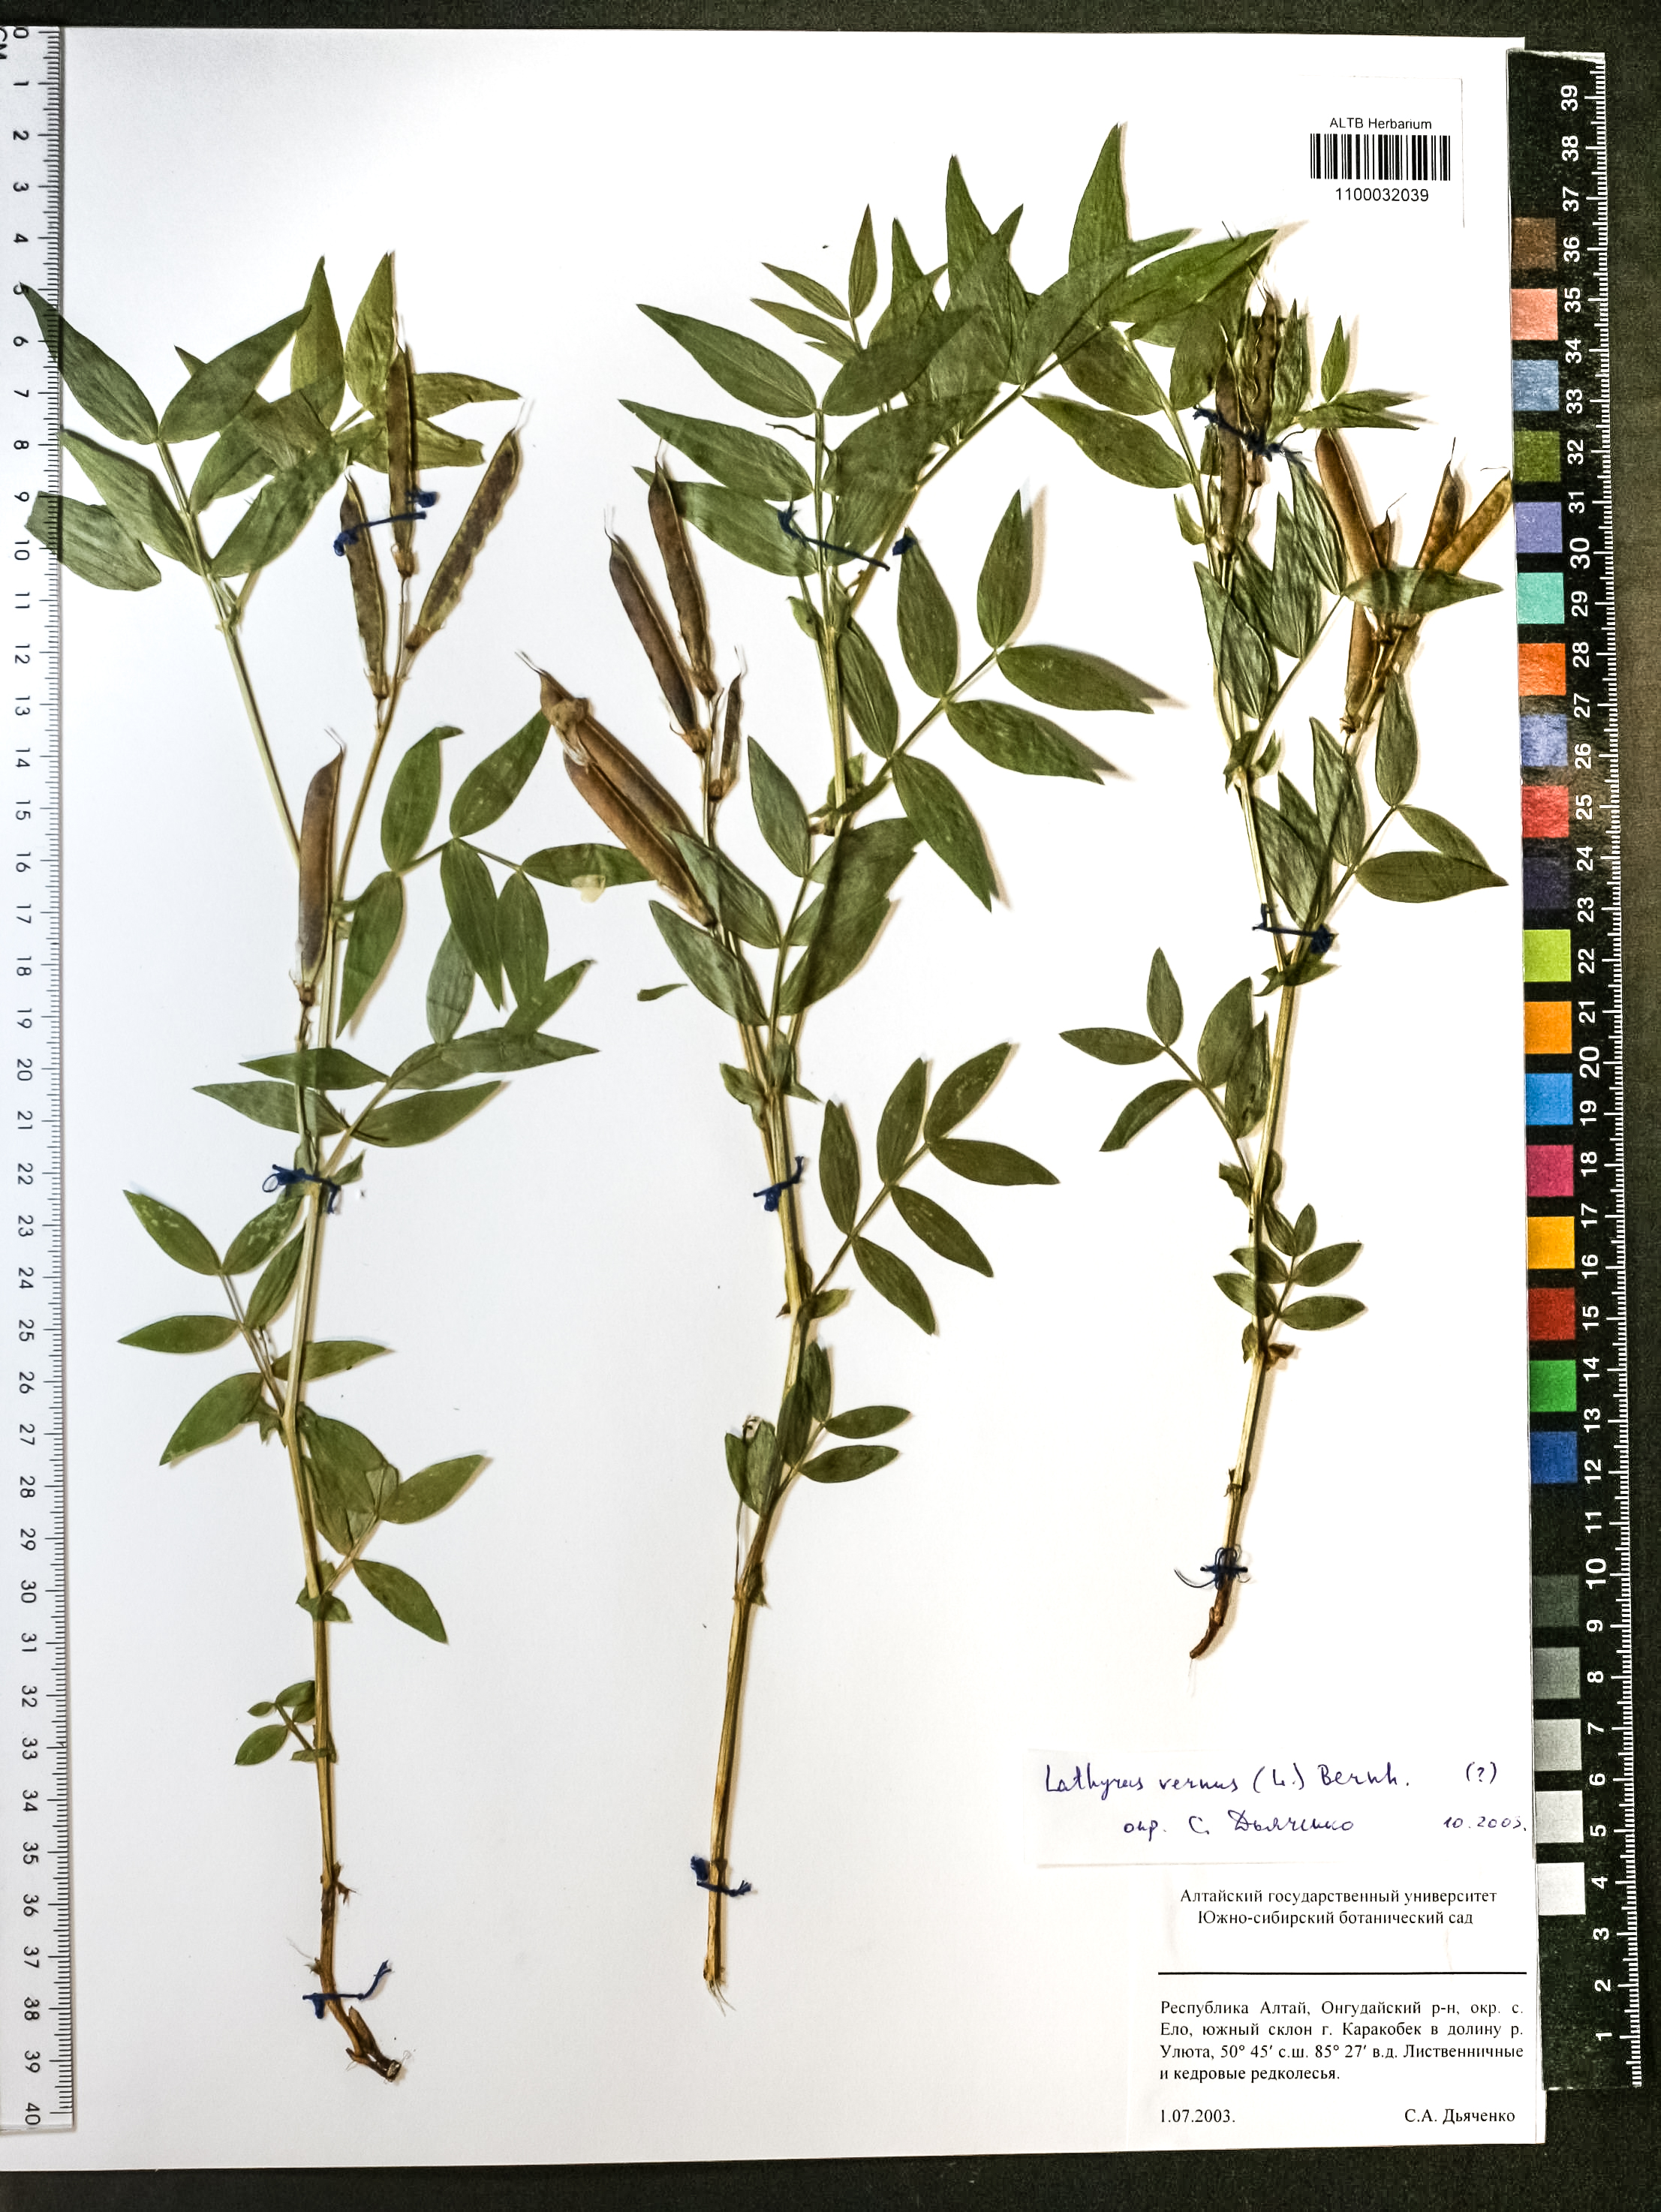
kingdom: Plantae
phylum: Tracheophyta
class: Magnoliopsida
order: Fabales
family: Fabaceae
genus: Lathyrus
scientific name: Lathyrus vernus
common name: Spring pea
